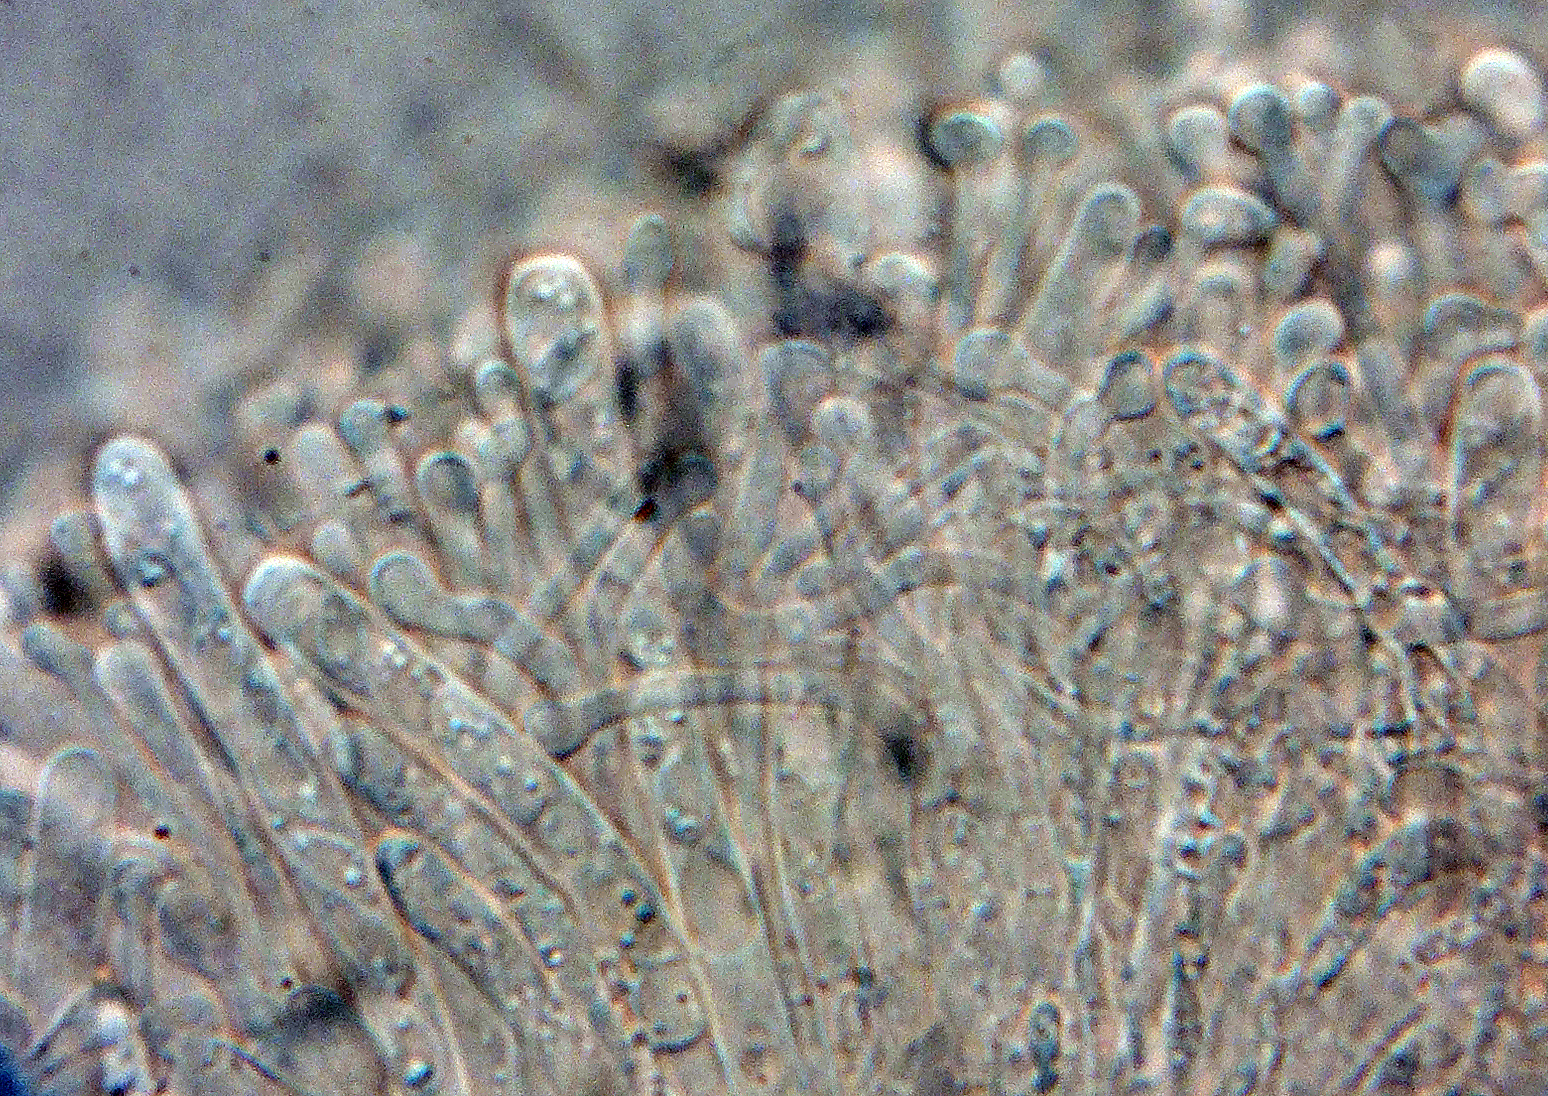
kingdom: Fungi
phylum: Ascomycota
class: Orbiliomycetes
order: Orbiliales
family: Orbiliaceae
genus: Orbilia
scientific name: Orbilia eucalypti
